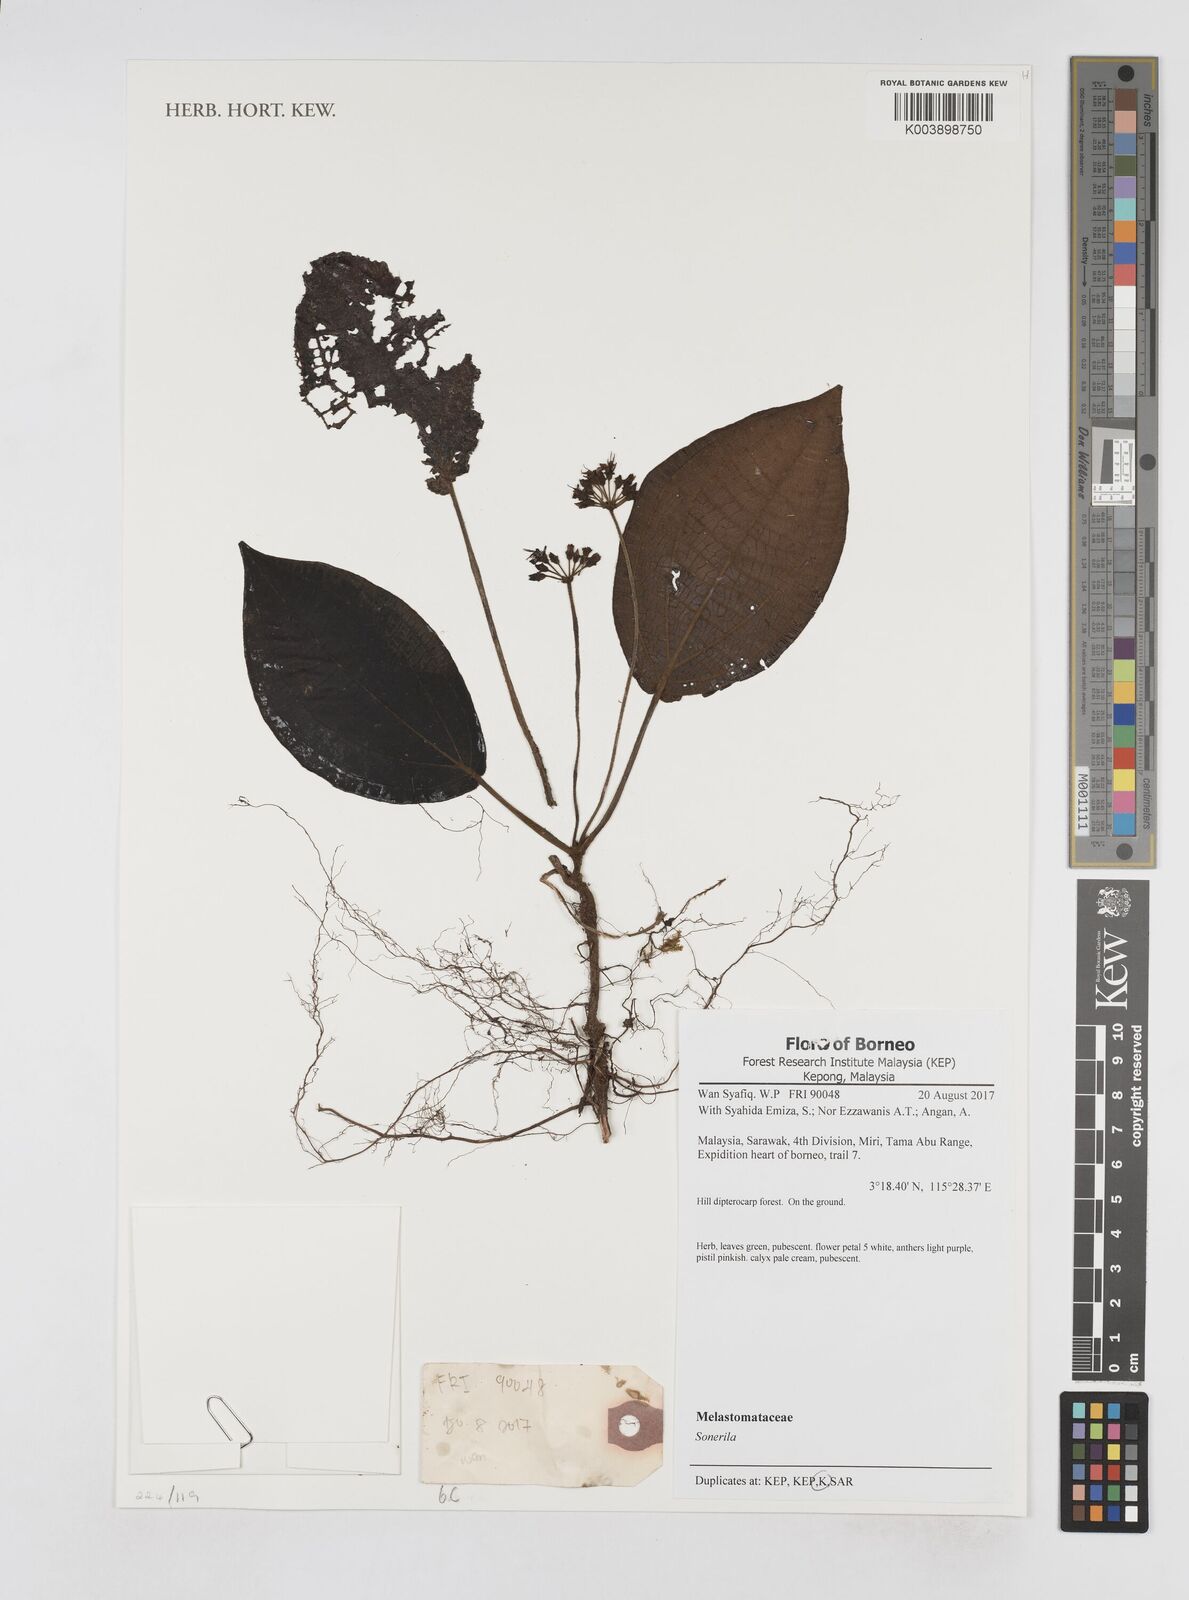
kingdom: Plantae
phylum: Tracheophyta
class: Magnoliopsida
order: Myrtales
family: Melastomataceae
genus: Sonerila
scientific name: Sonerila
